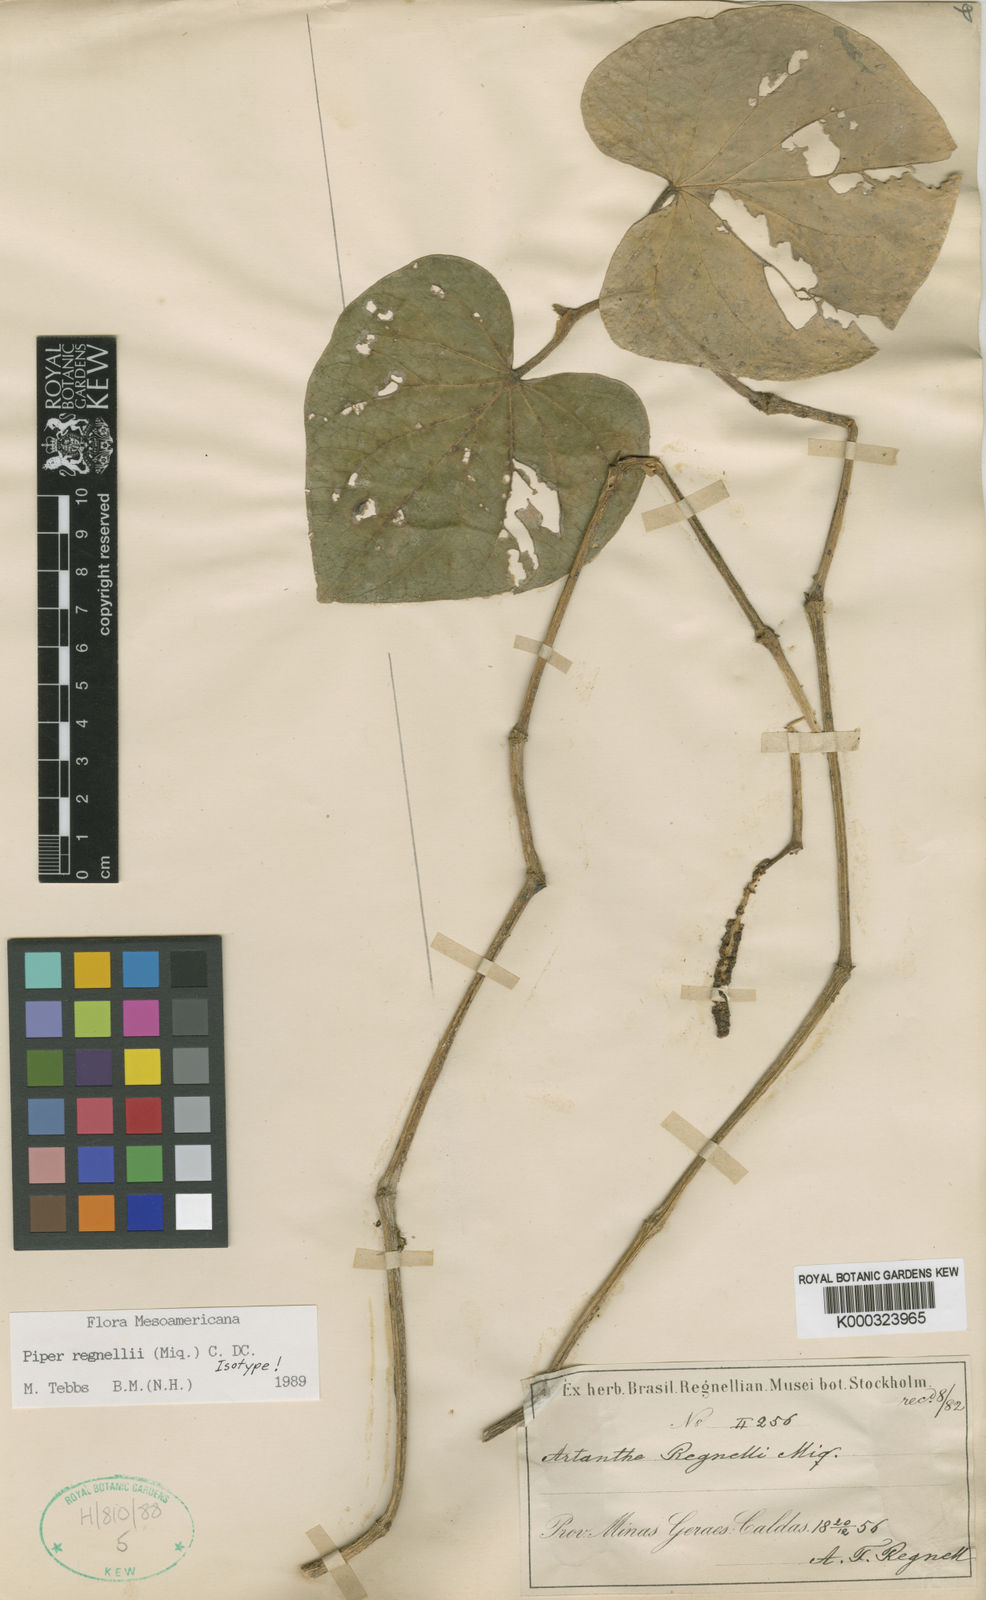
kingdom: Plantae
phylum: Tracheophyta
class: Magnoliopsida
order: Piperales
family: Piperaceae
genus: Piper
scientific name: Piper regnellii
